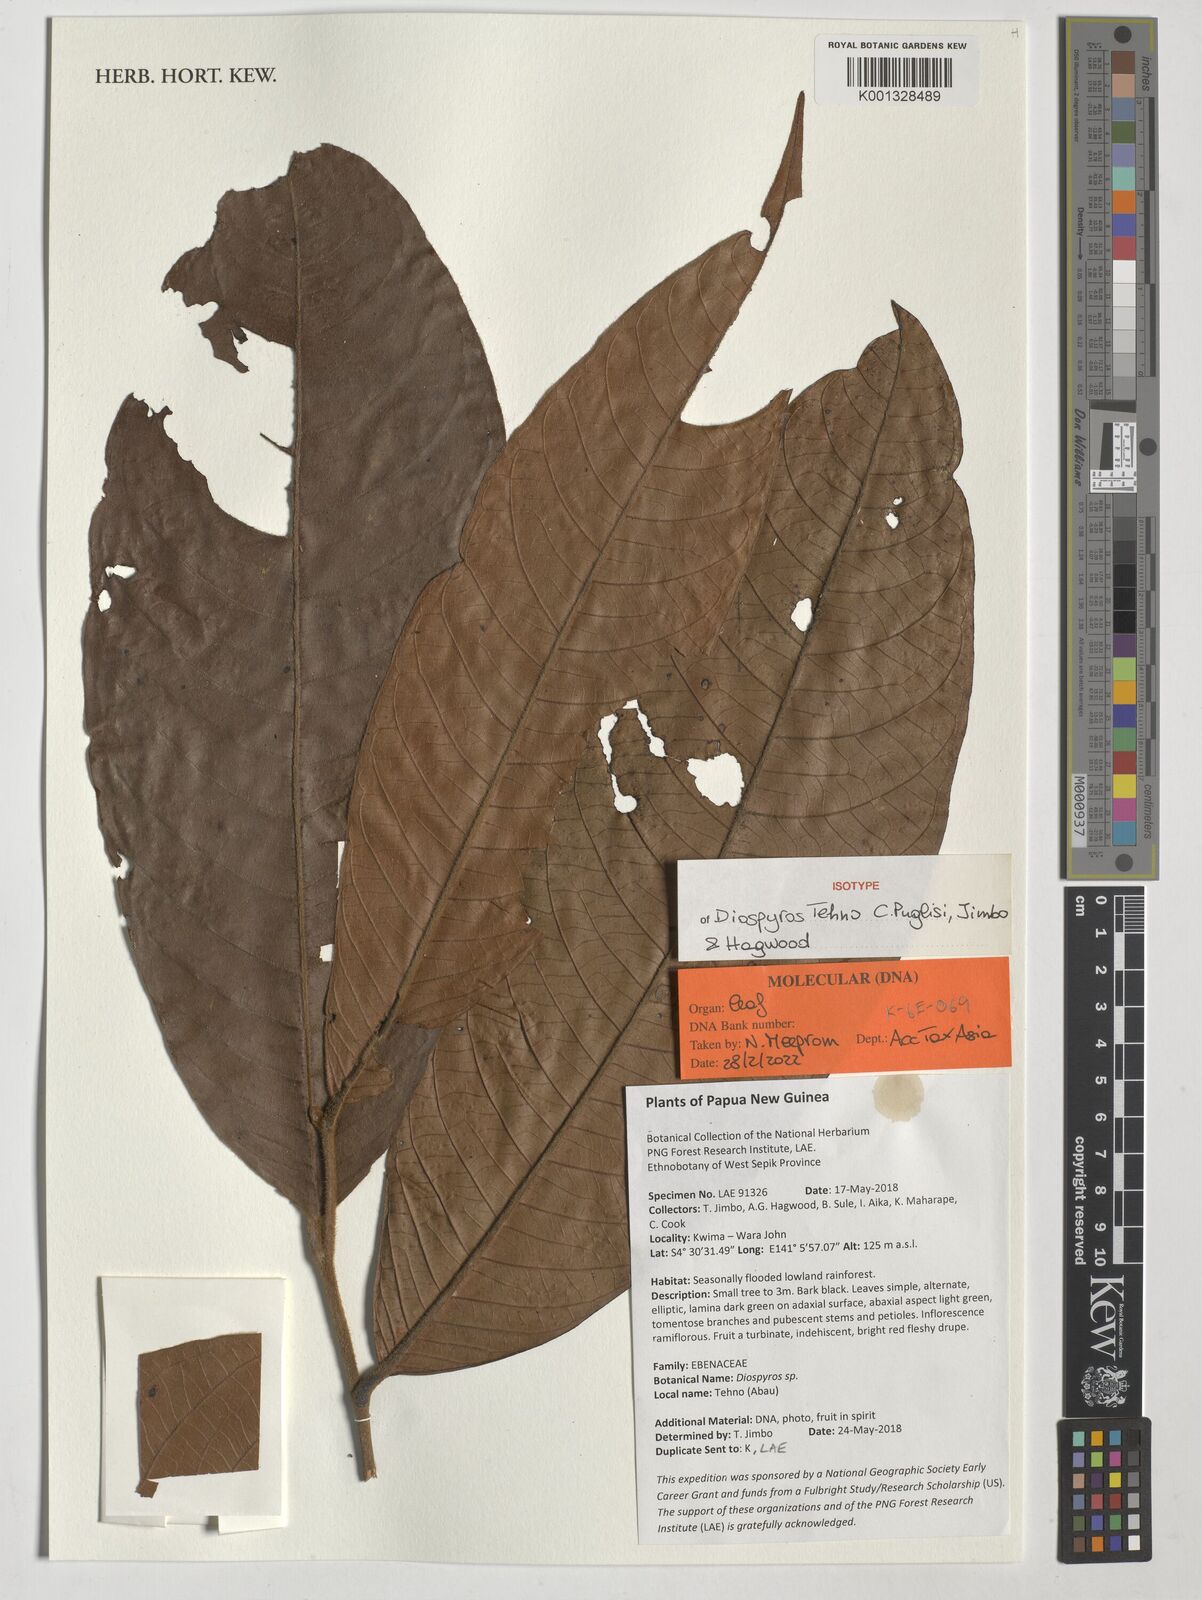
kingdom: Plantae
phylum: Tracheophyta
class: Magnoliopsida
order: Ericales
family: Ebenaceae
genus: Diospyros
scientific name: Diospyros
